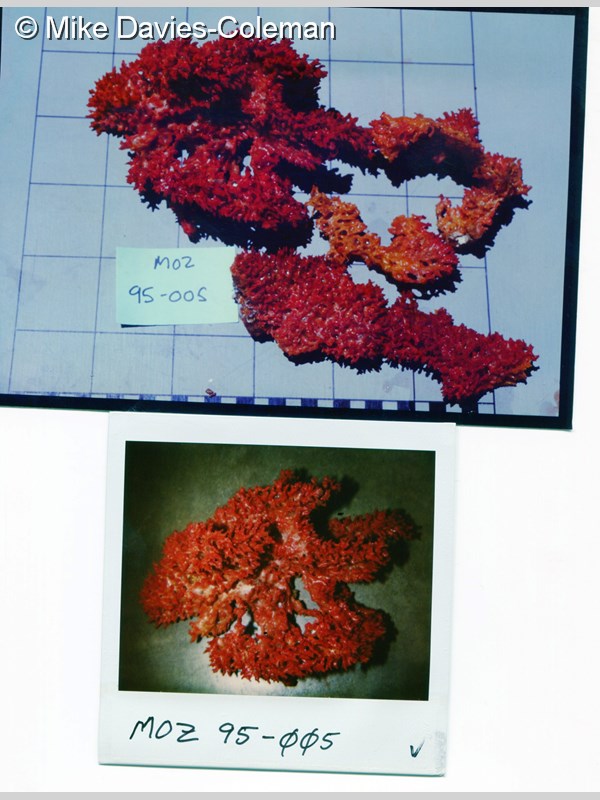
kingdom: Animalia
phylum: Porifera
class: Demospongiae
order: Poecilosclerida
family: Microcionidae
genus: Clathria
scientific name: Clathria vulpina
